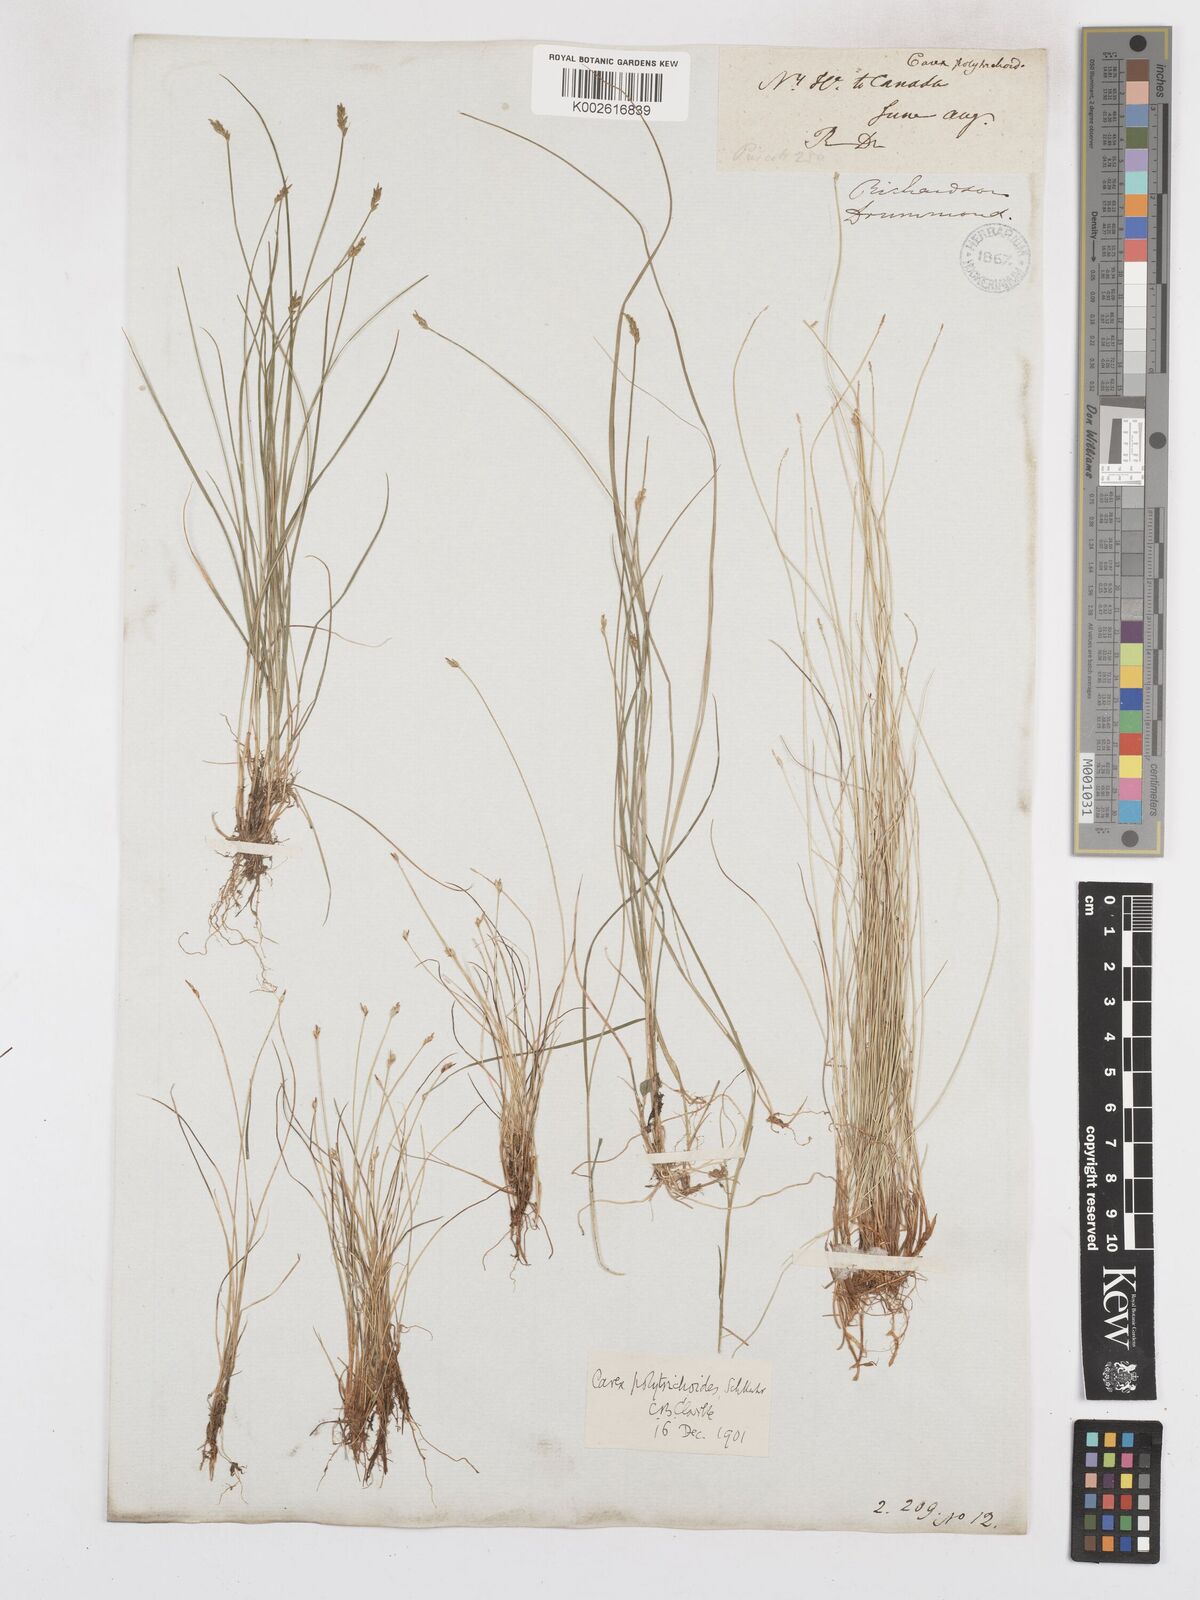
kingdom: Plantae
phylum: Tracheophyta
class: Liliopsida
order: Poales
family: Cyperaceae
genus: Carex
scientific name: Carex leptalea
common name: Bristly-stalked sedge
